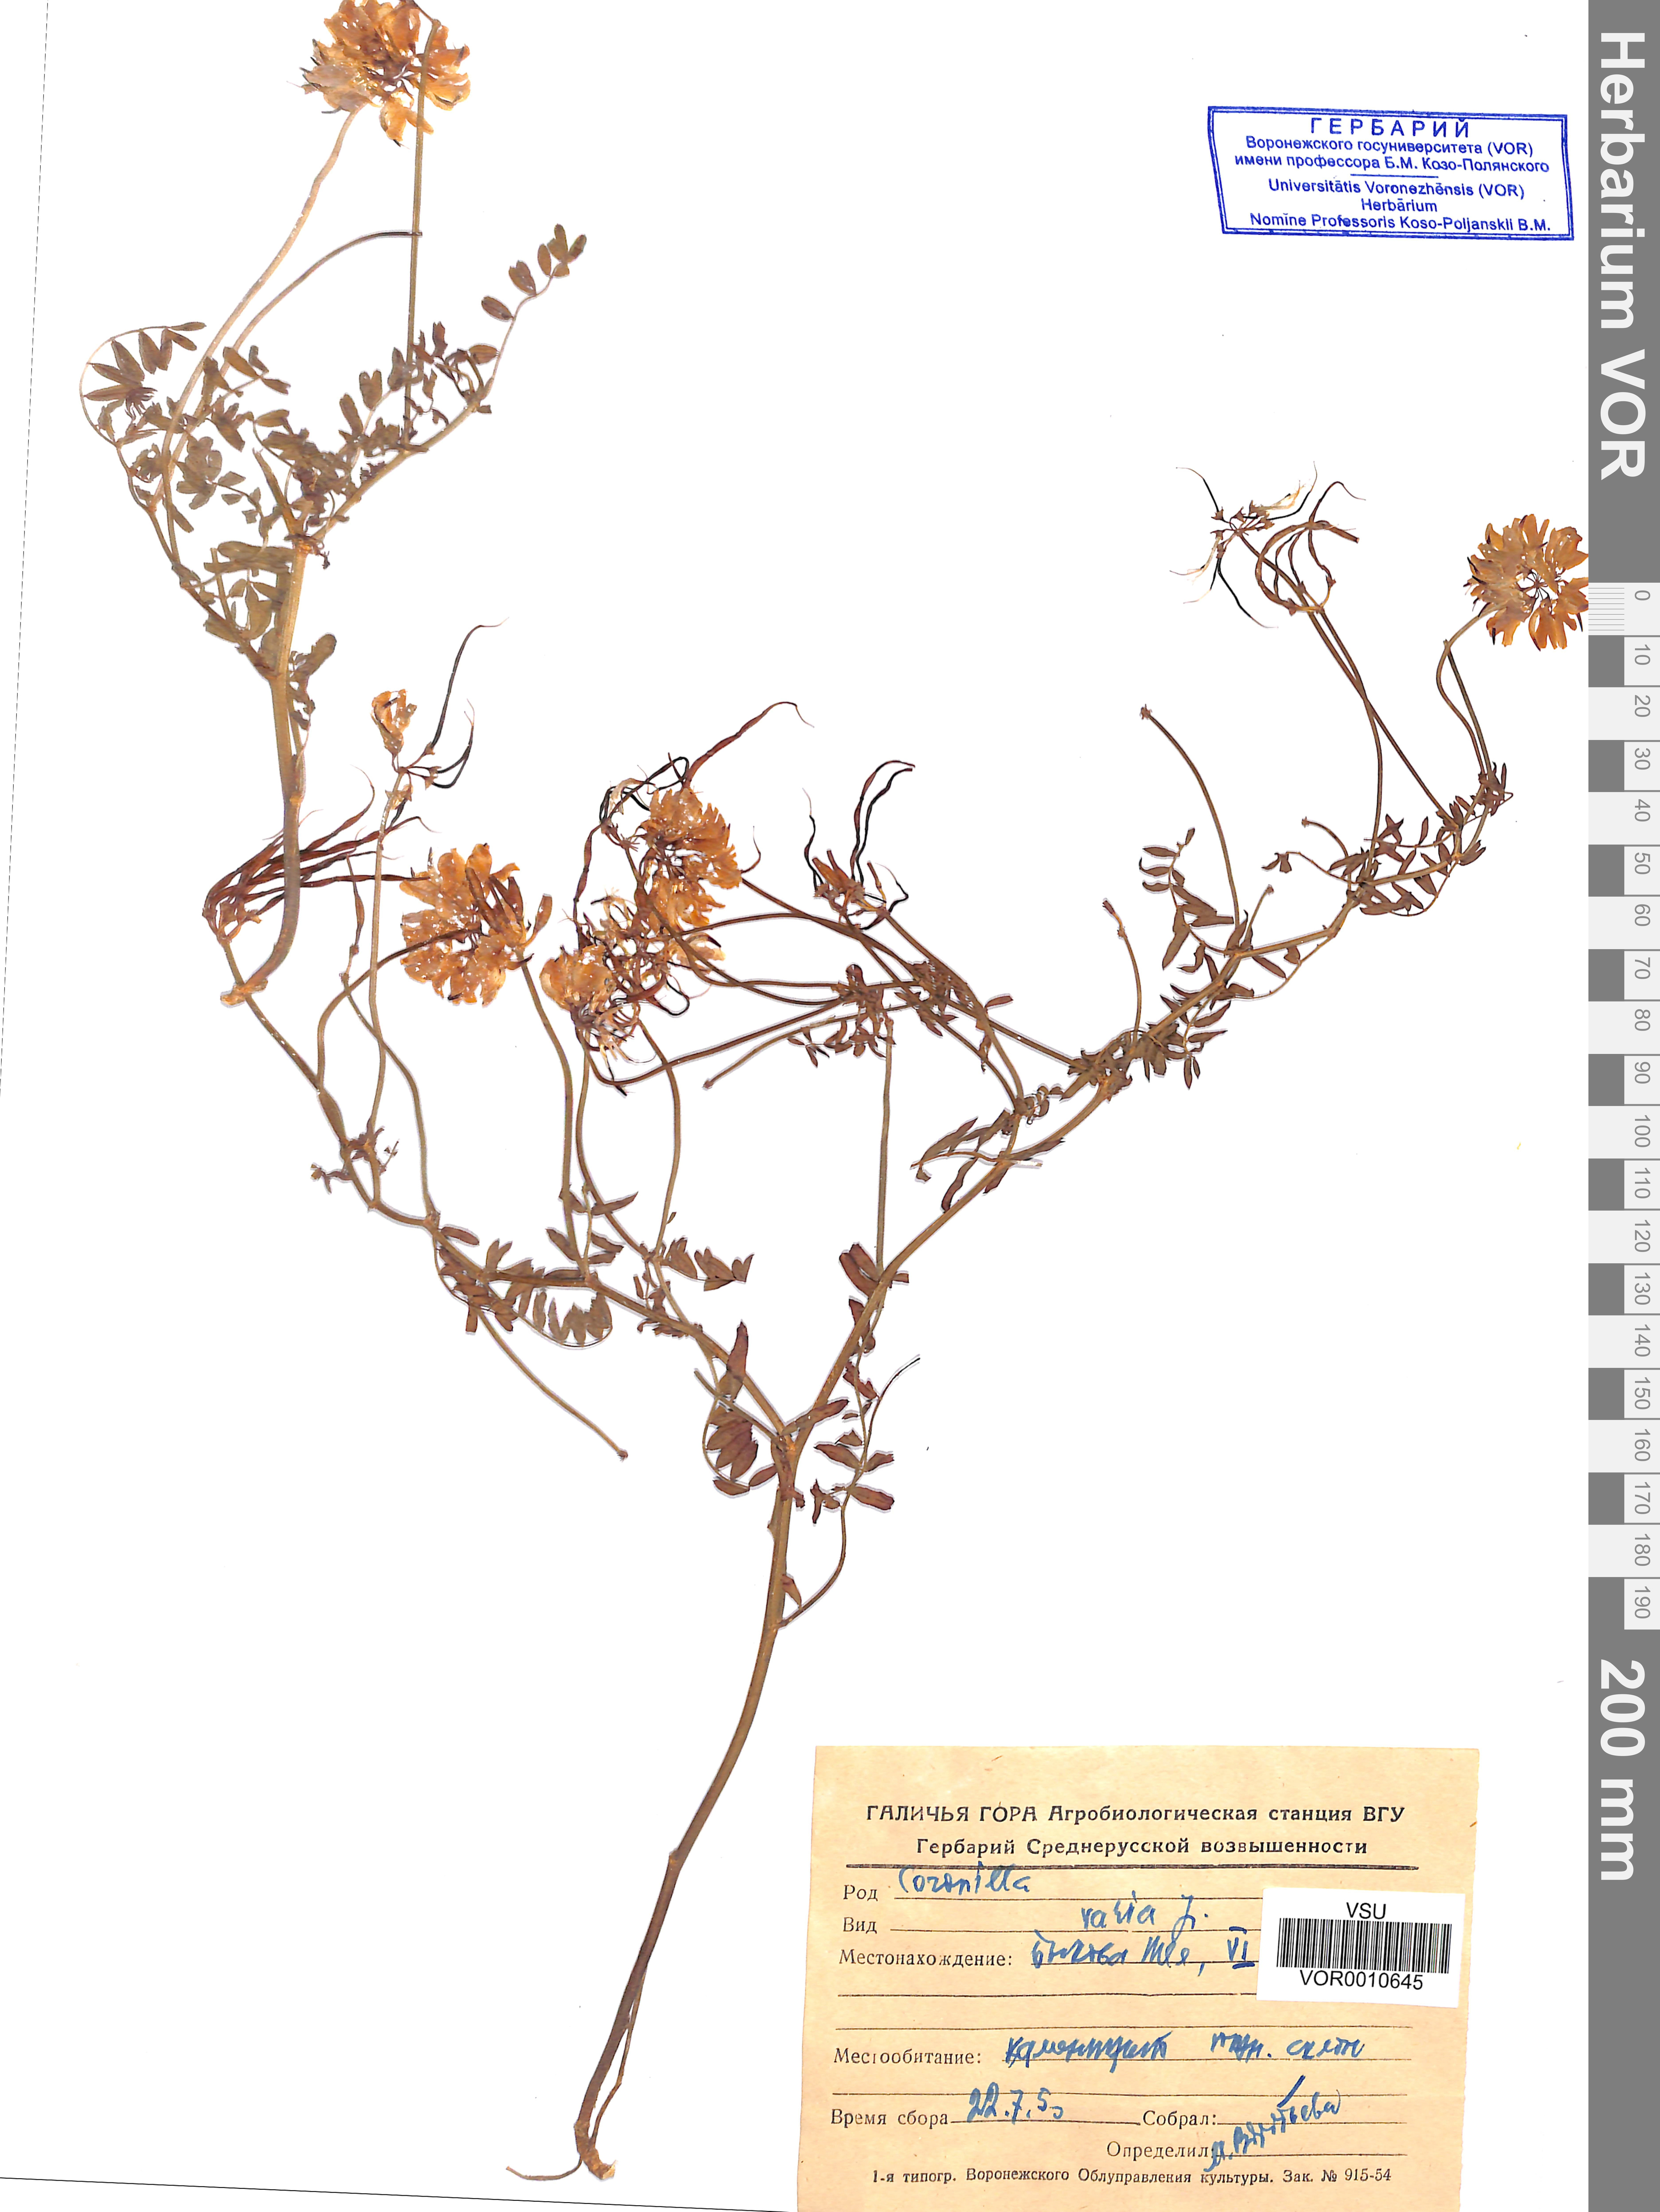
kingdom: Plantae
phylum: Tracheophyta
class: Magnoliopsida
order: Fabales
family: Fabaceae
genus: Coronilla
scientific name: Coronilla varia
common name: Crownvetch
